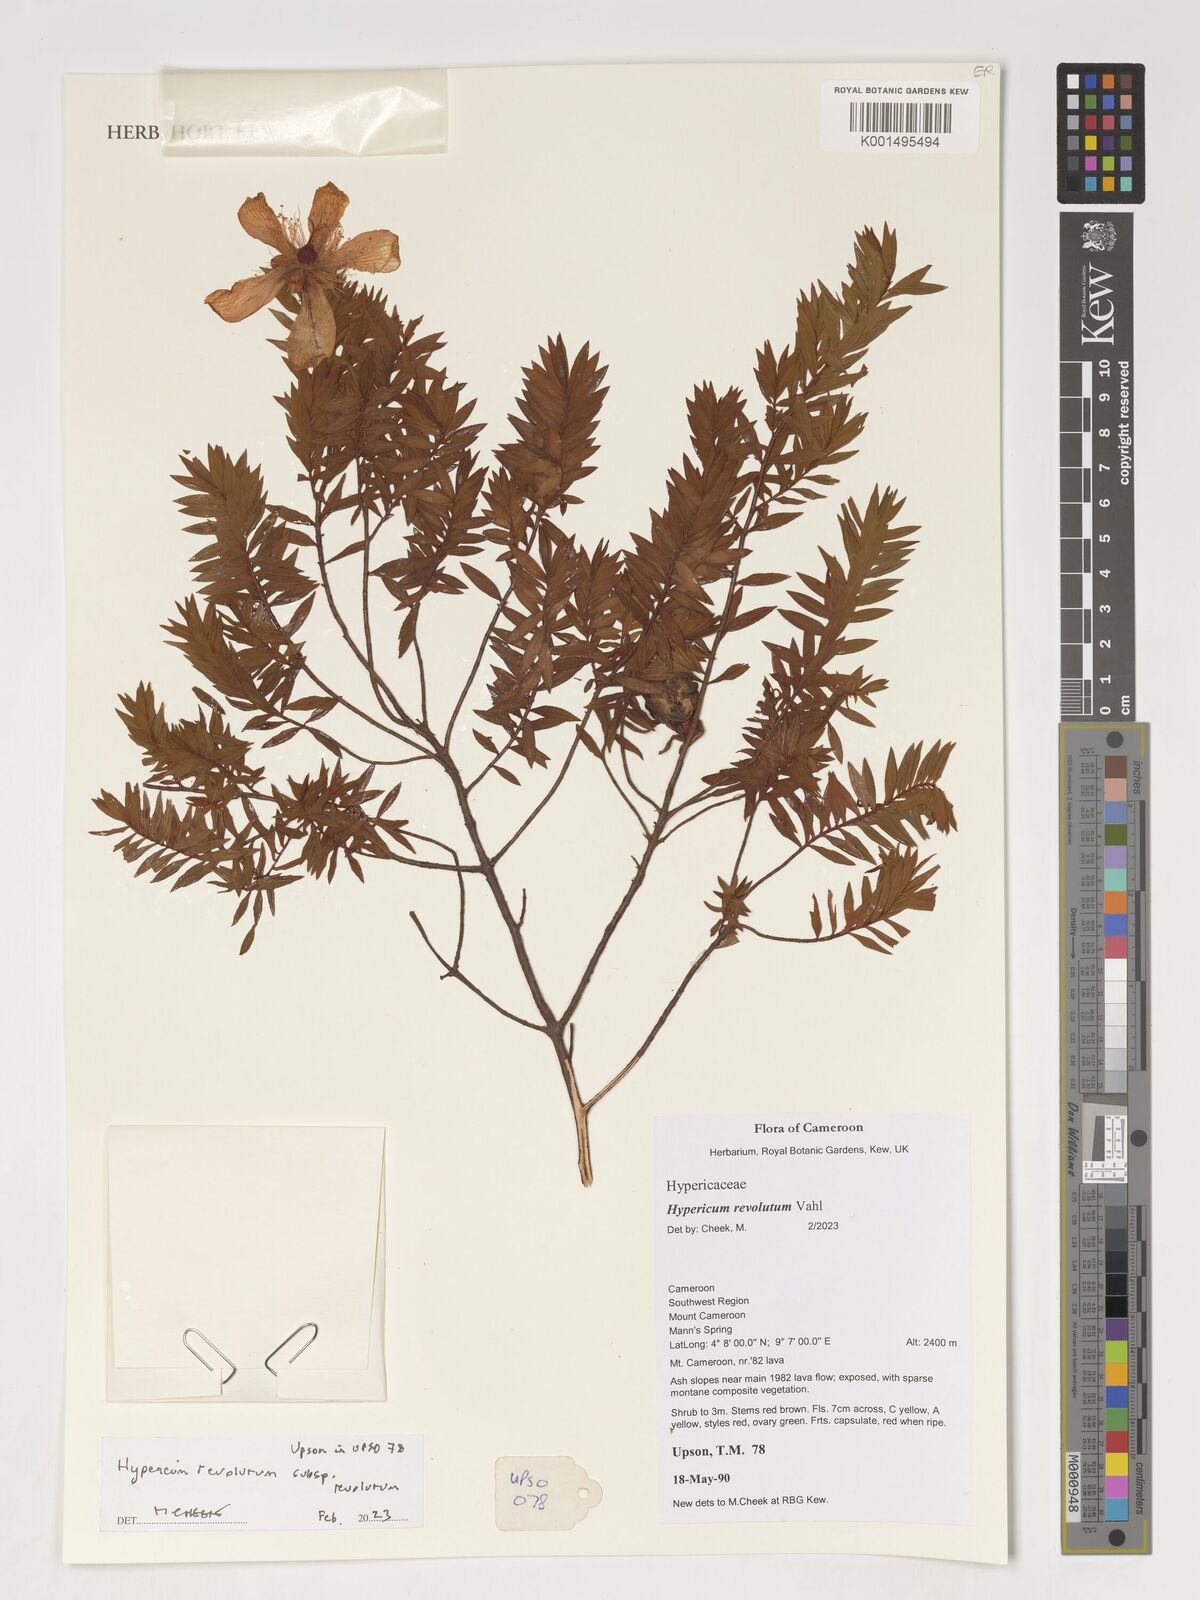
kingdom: Plantae
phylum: Tracheophyta
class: Magnoliopsida
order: Malpighiales
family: Hypericaceae
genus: Hypericum
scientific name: Hypericum revolutum
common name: Curry bush
